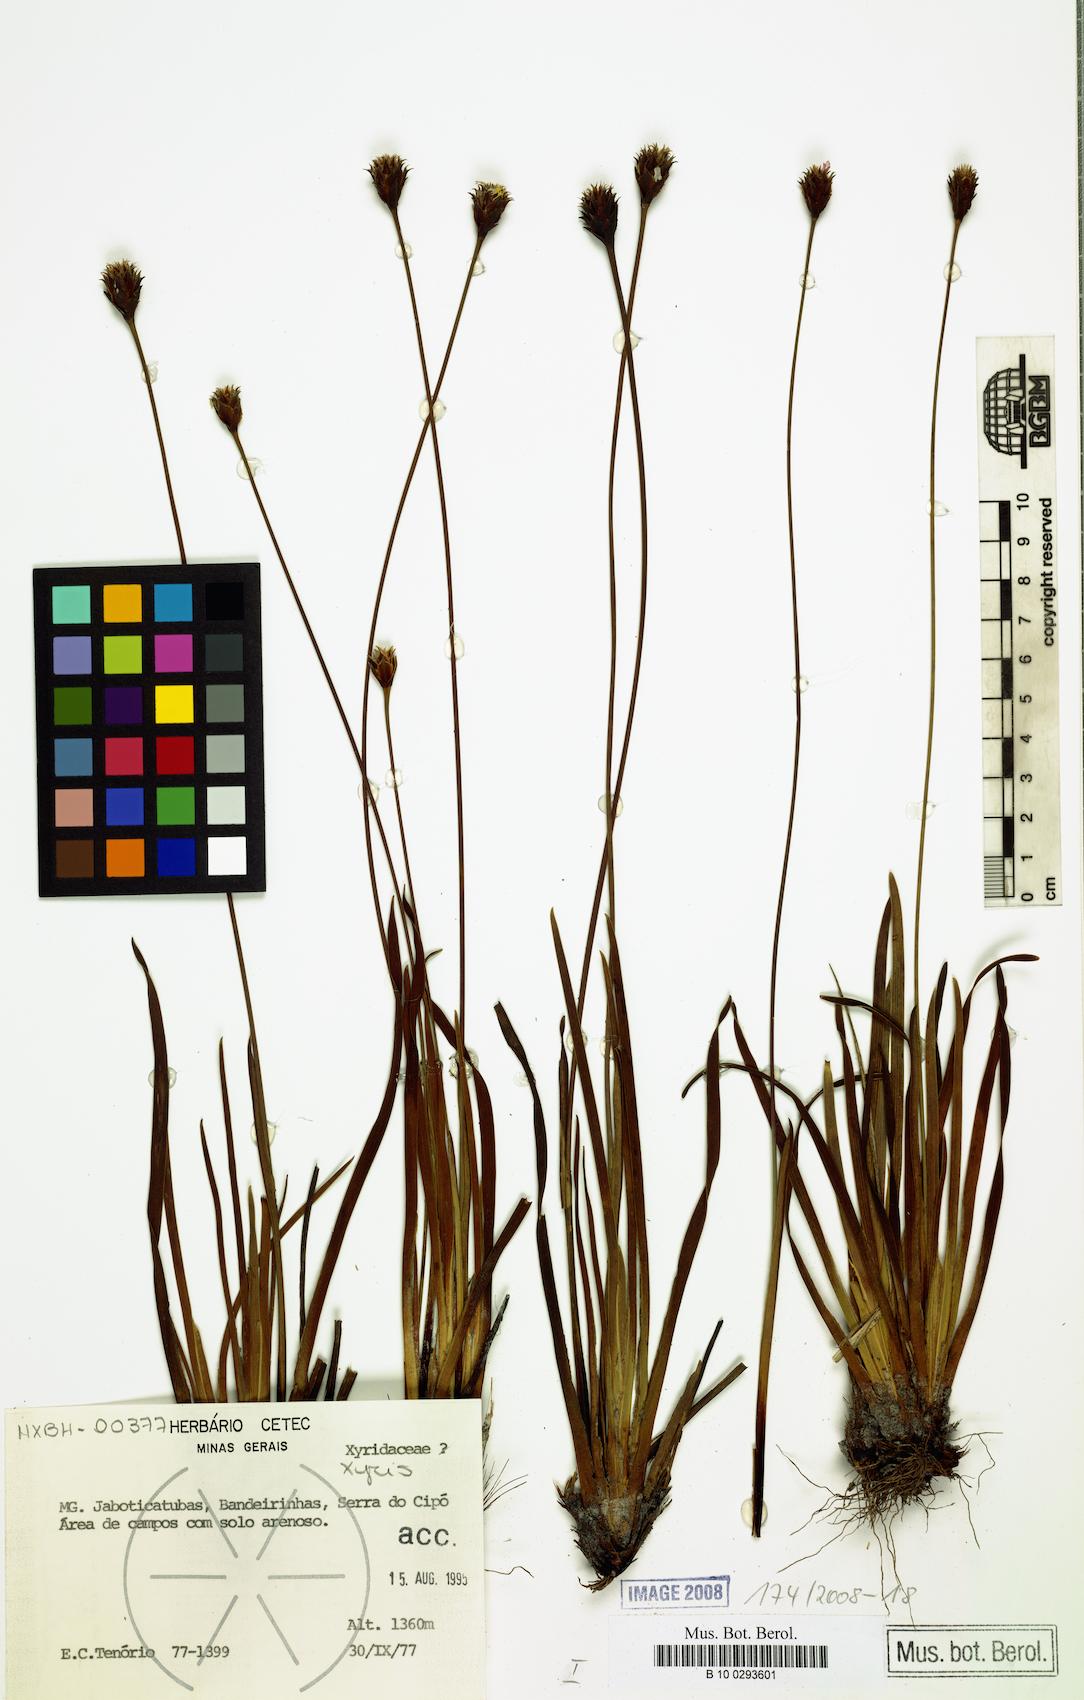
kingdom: Plantae
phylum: Tracheophyta
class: Liliopsida
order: Poales
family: Xyridaceae
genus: Xyris
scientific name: Xyris
